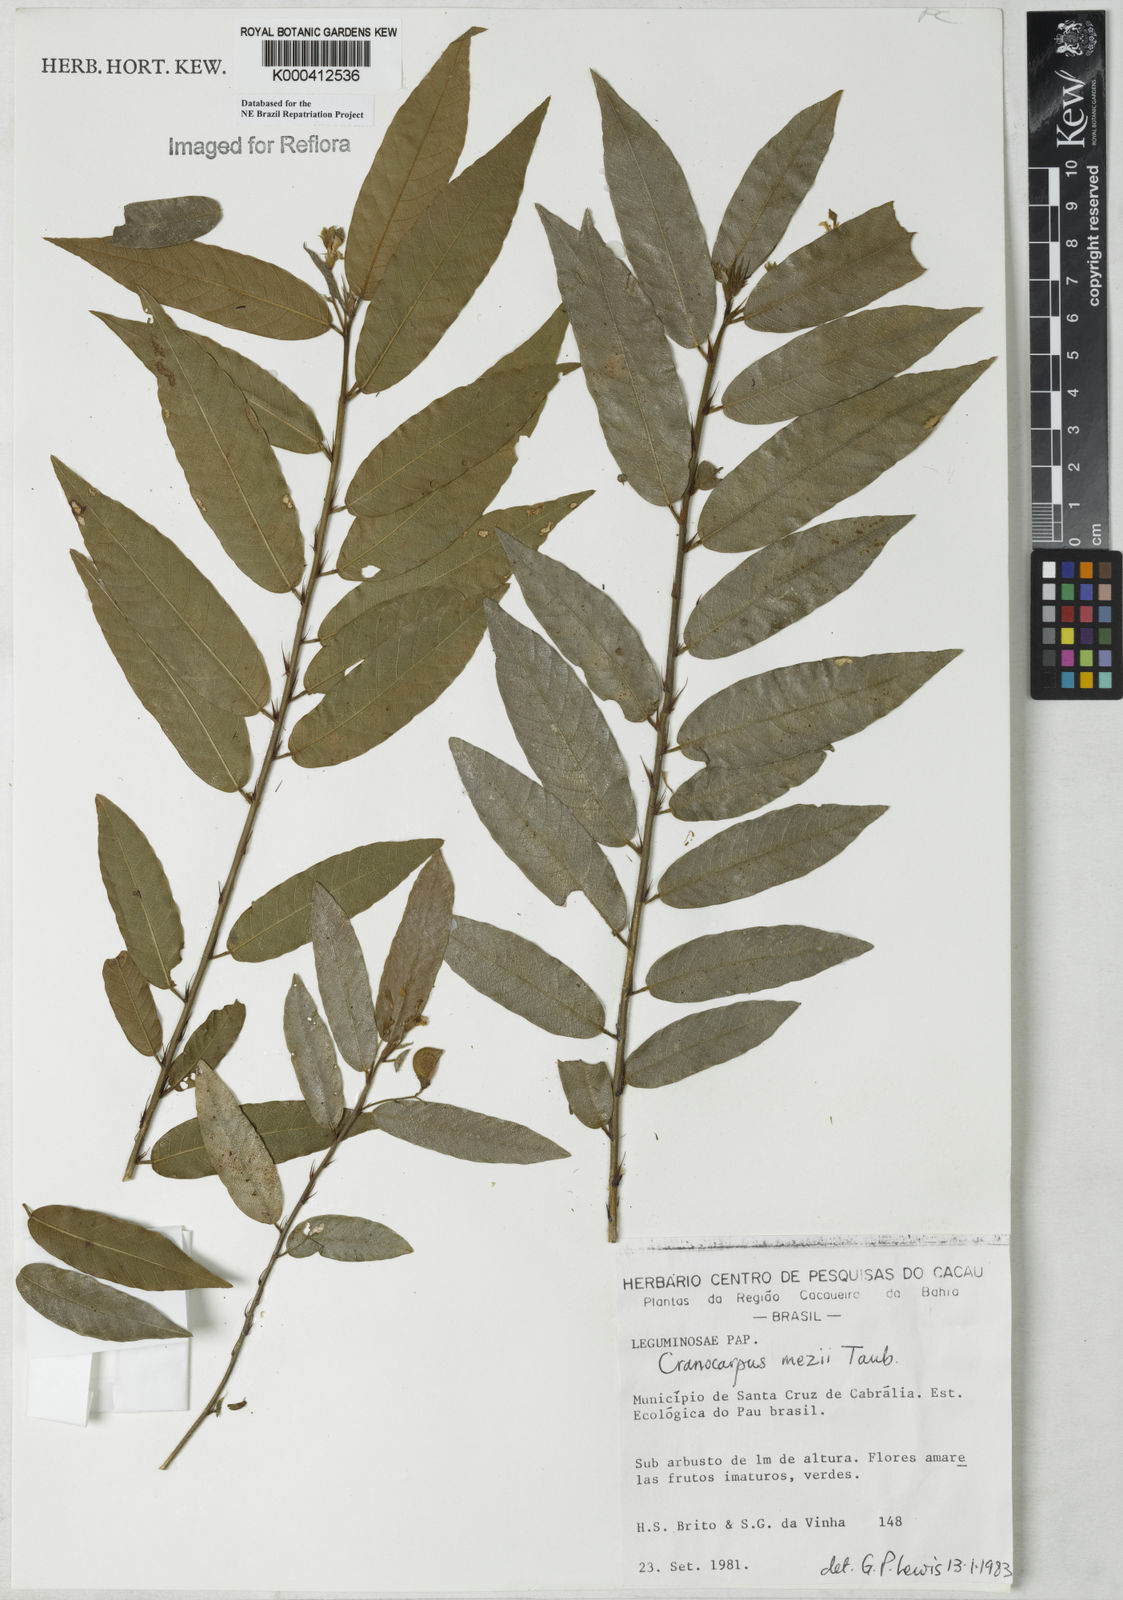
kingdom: Plantae
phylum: Tracheophyta
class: Magnoliopsida
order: Fabales
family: Fabaceae
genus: Cranocarpus
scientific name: Cranocarpus mezii
